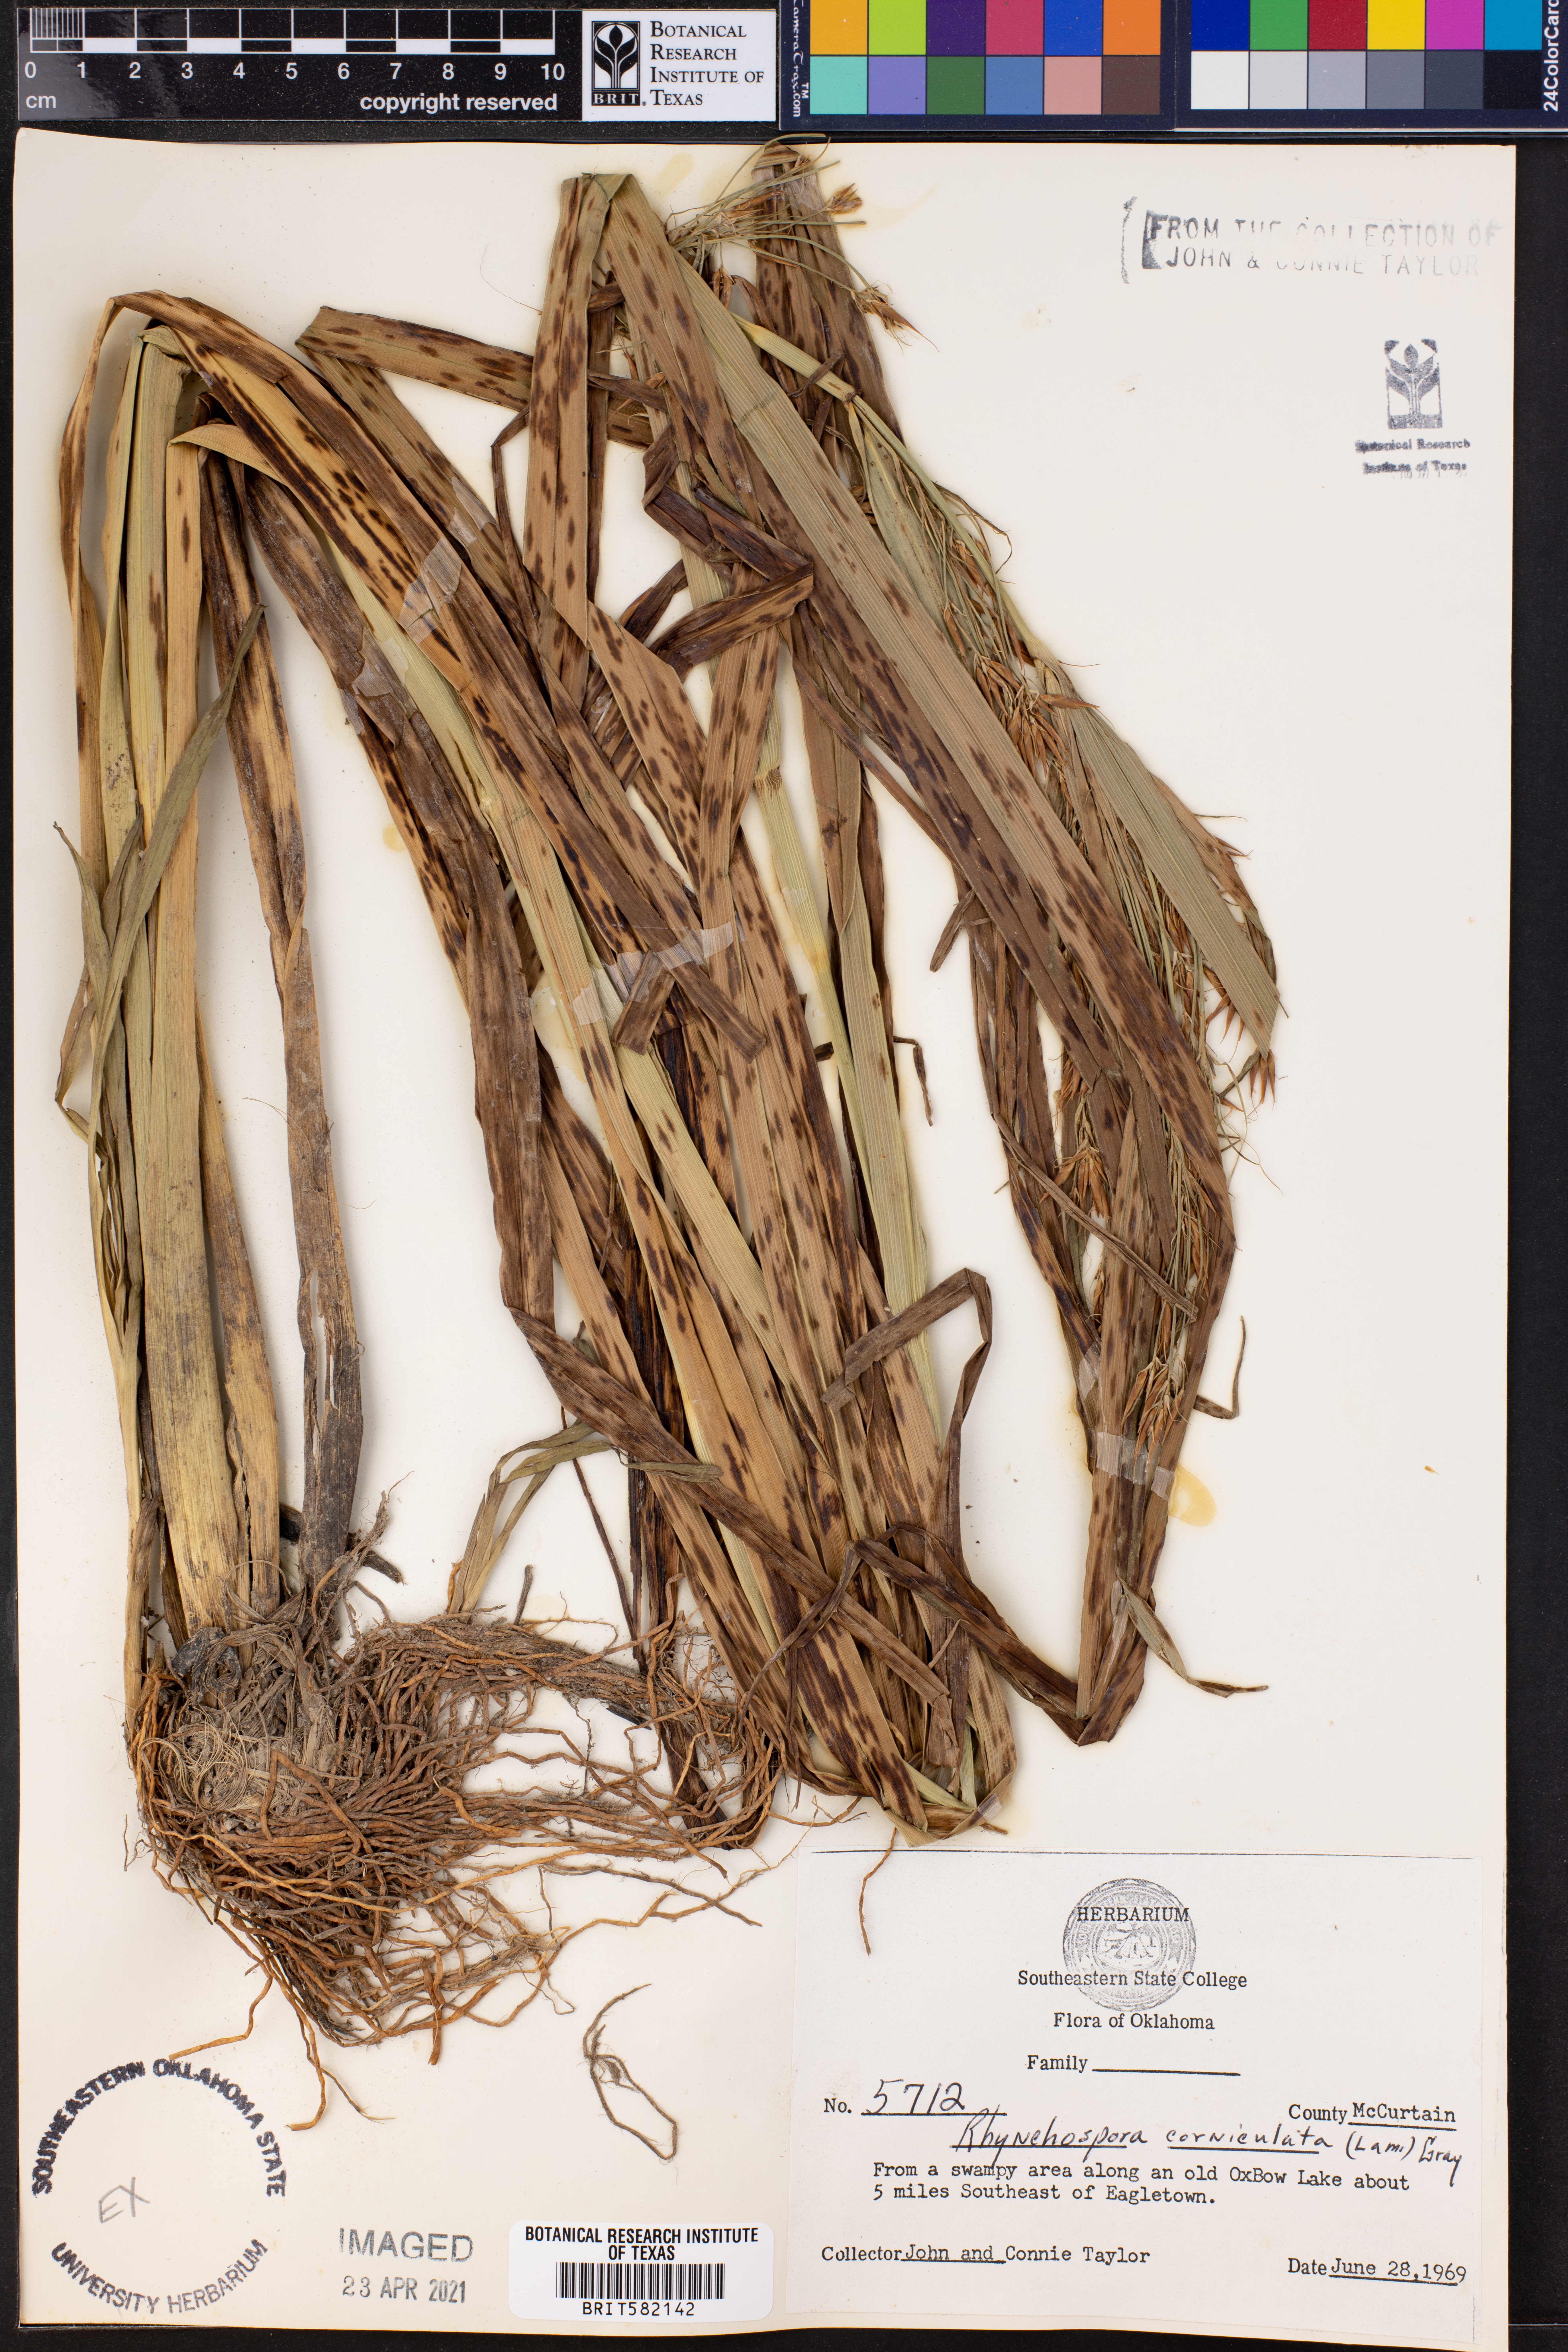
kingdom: Plantae
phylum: Tracheophyta
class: Liliopsida
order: Poales
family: Cyperaceae
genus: Rhynchospora
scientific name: Rhynchospora corniculata
